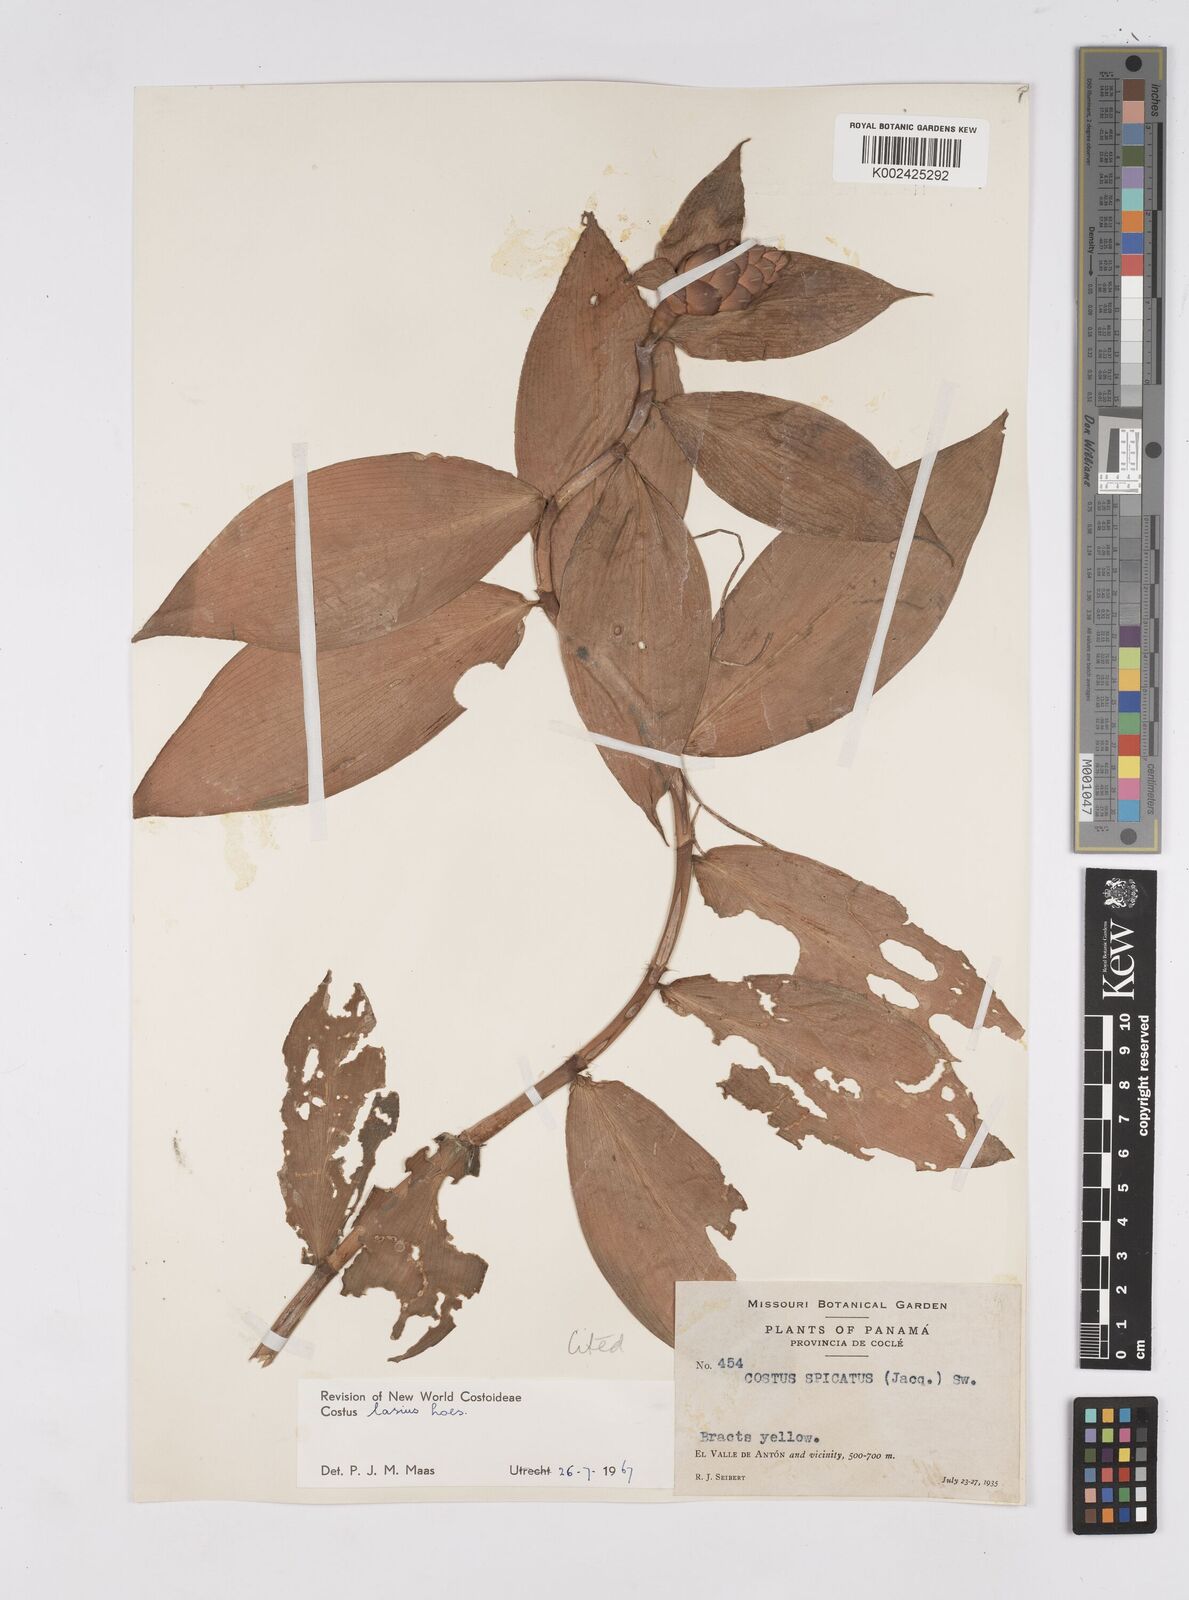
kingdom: Plantae
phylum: Tracheophyta
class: Liliopsida
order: Zingiberales
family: Costaceae
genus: Costus
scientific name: Costus lasius
